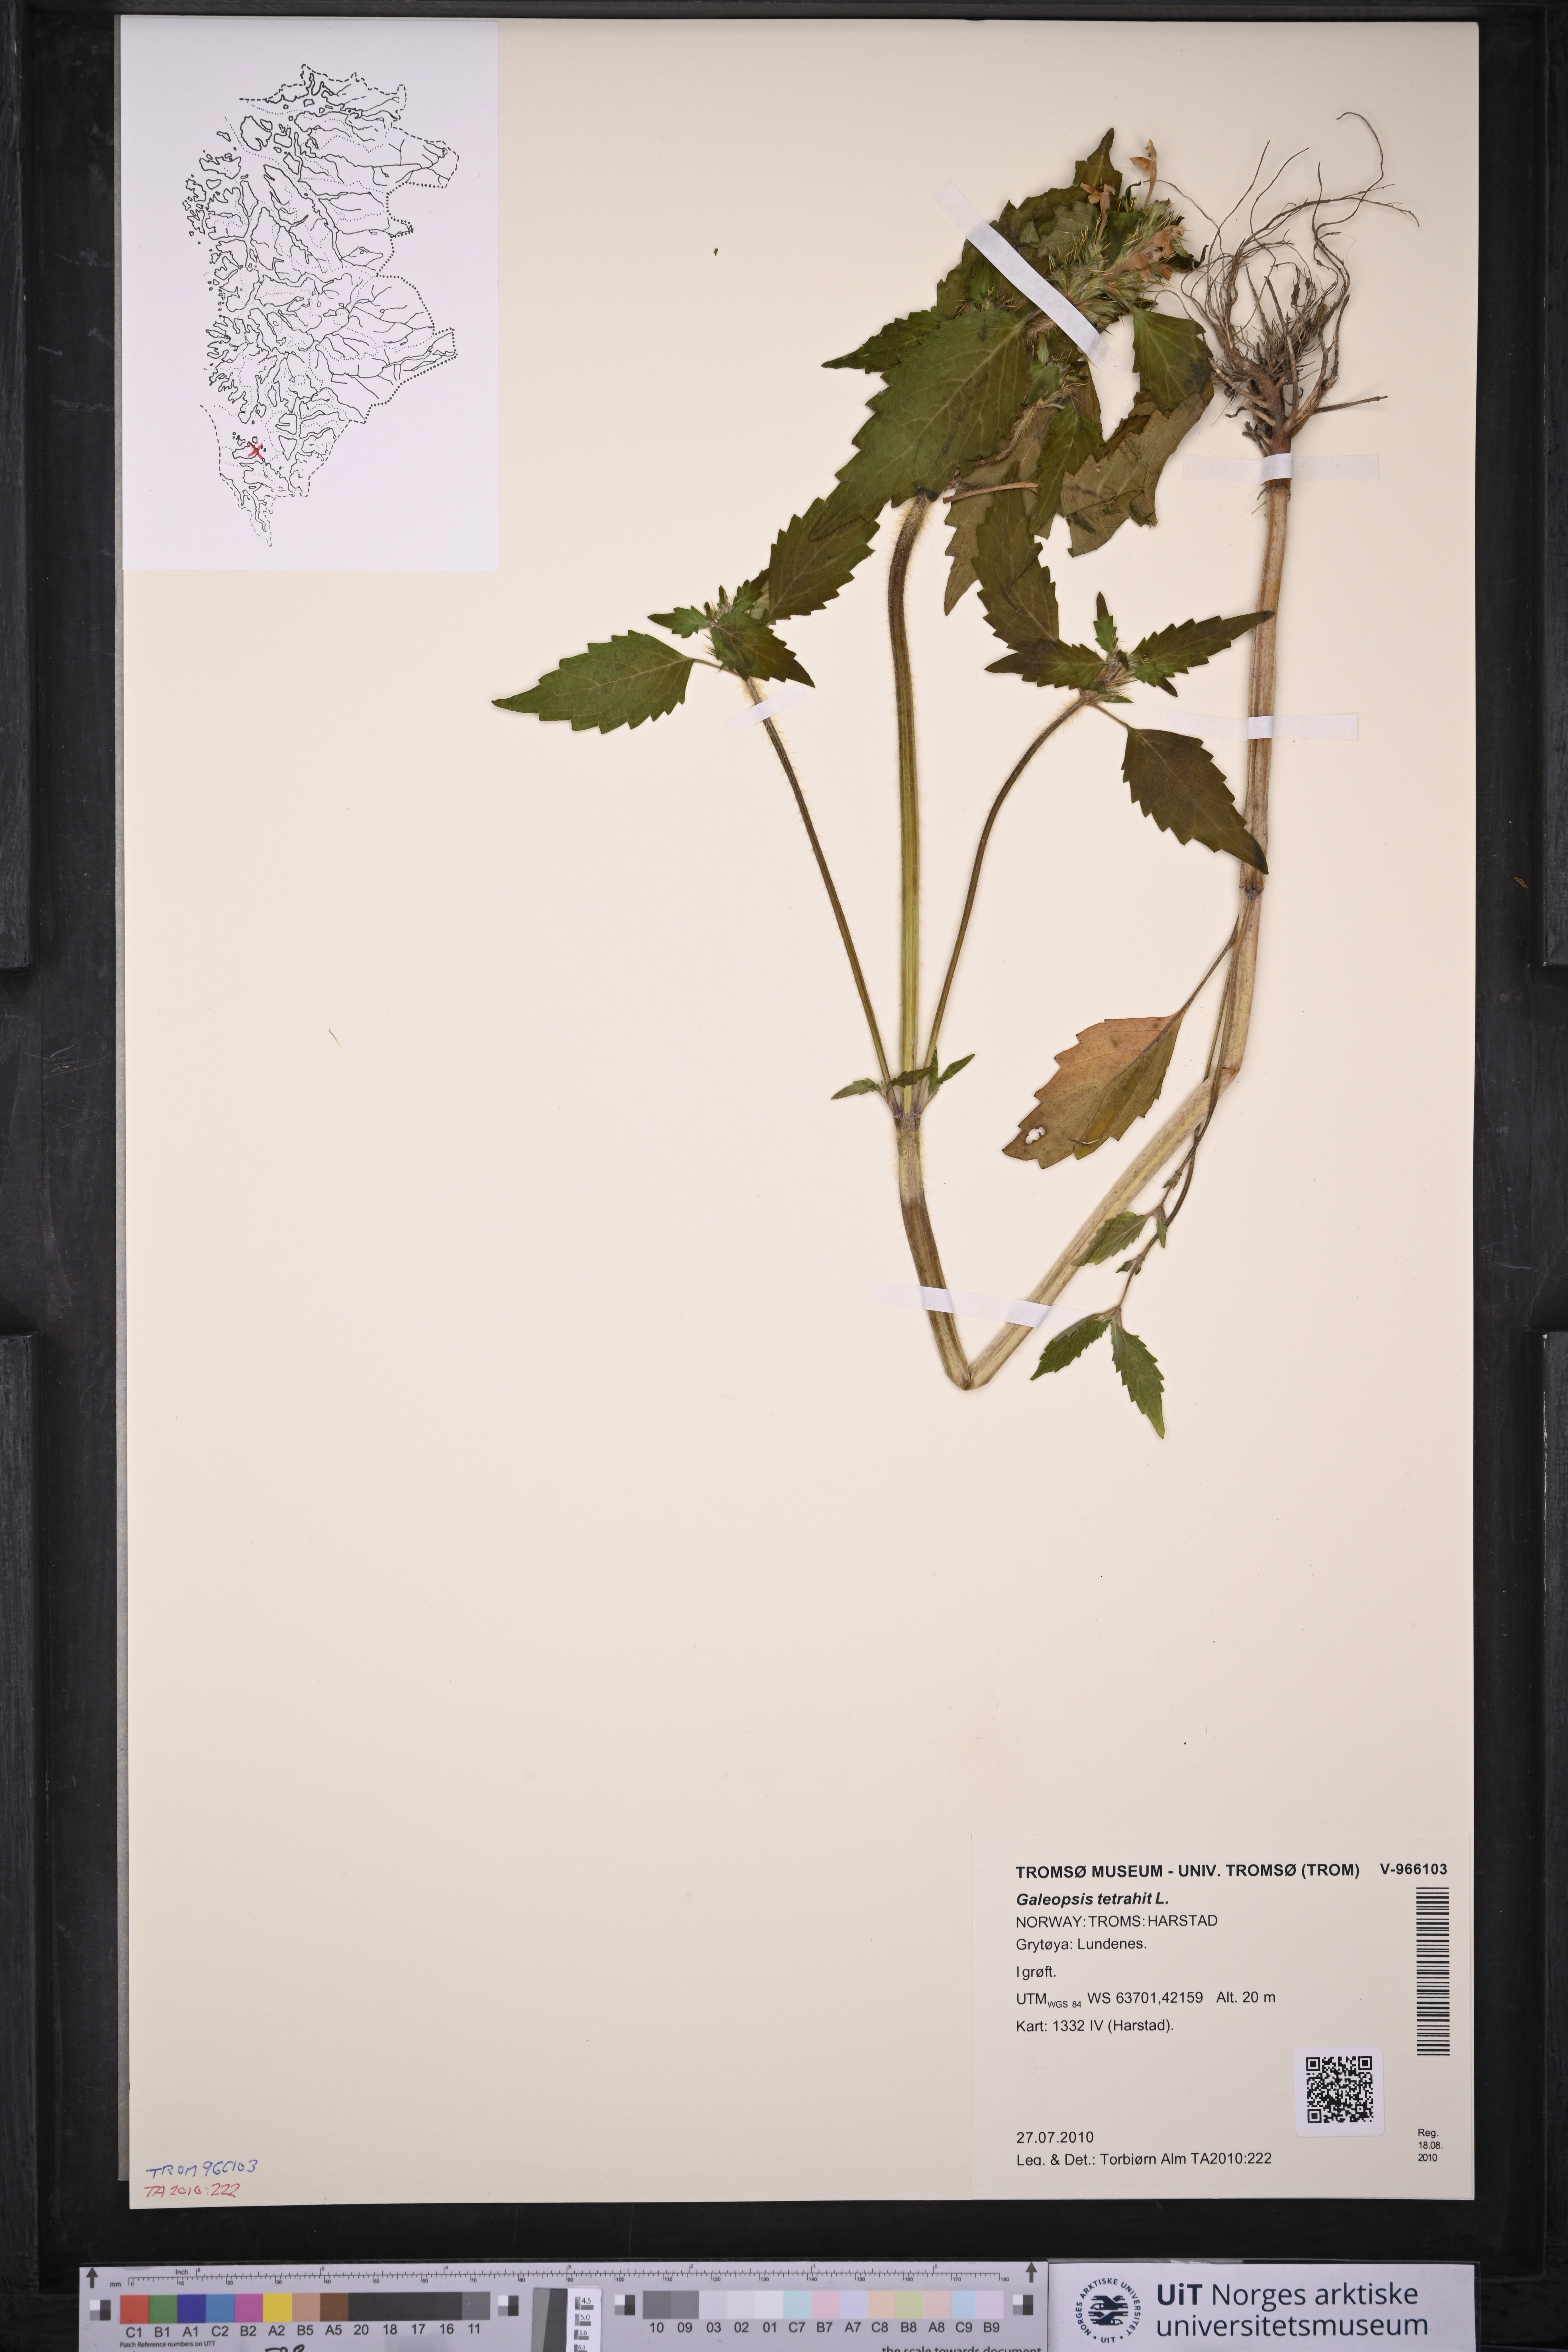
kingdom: Plantae
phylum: Tracheophyta
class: Magnoliopsida
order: Lamiales
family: Lamiaceae
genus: Galeopsis
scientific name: Galeopsis tetrahit
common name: Common hemp-nettle
